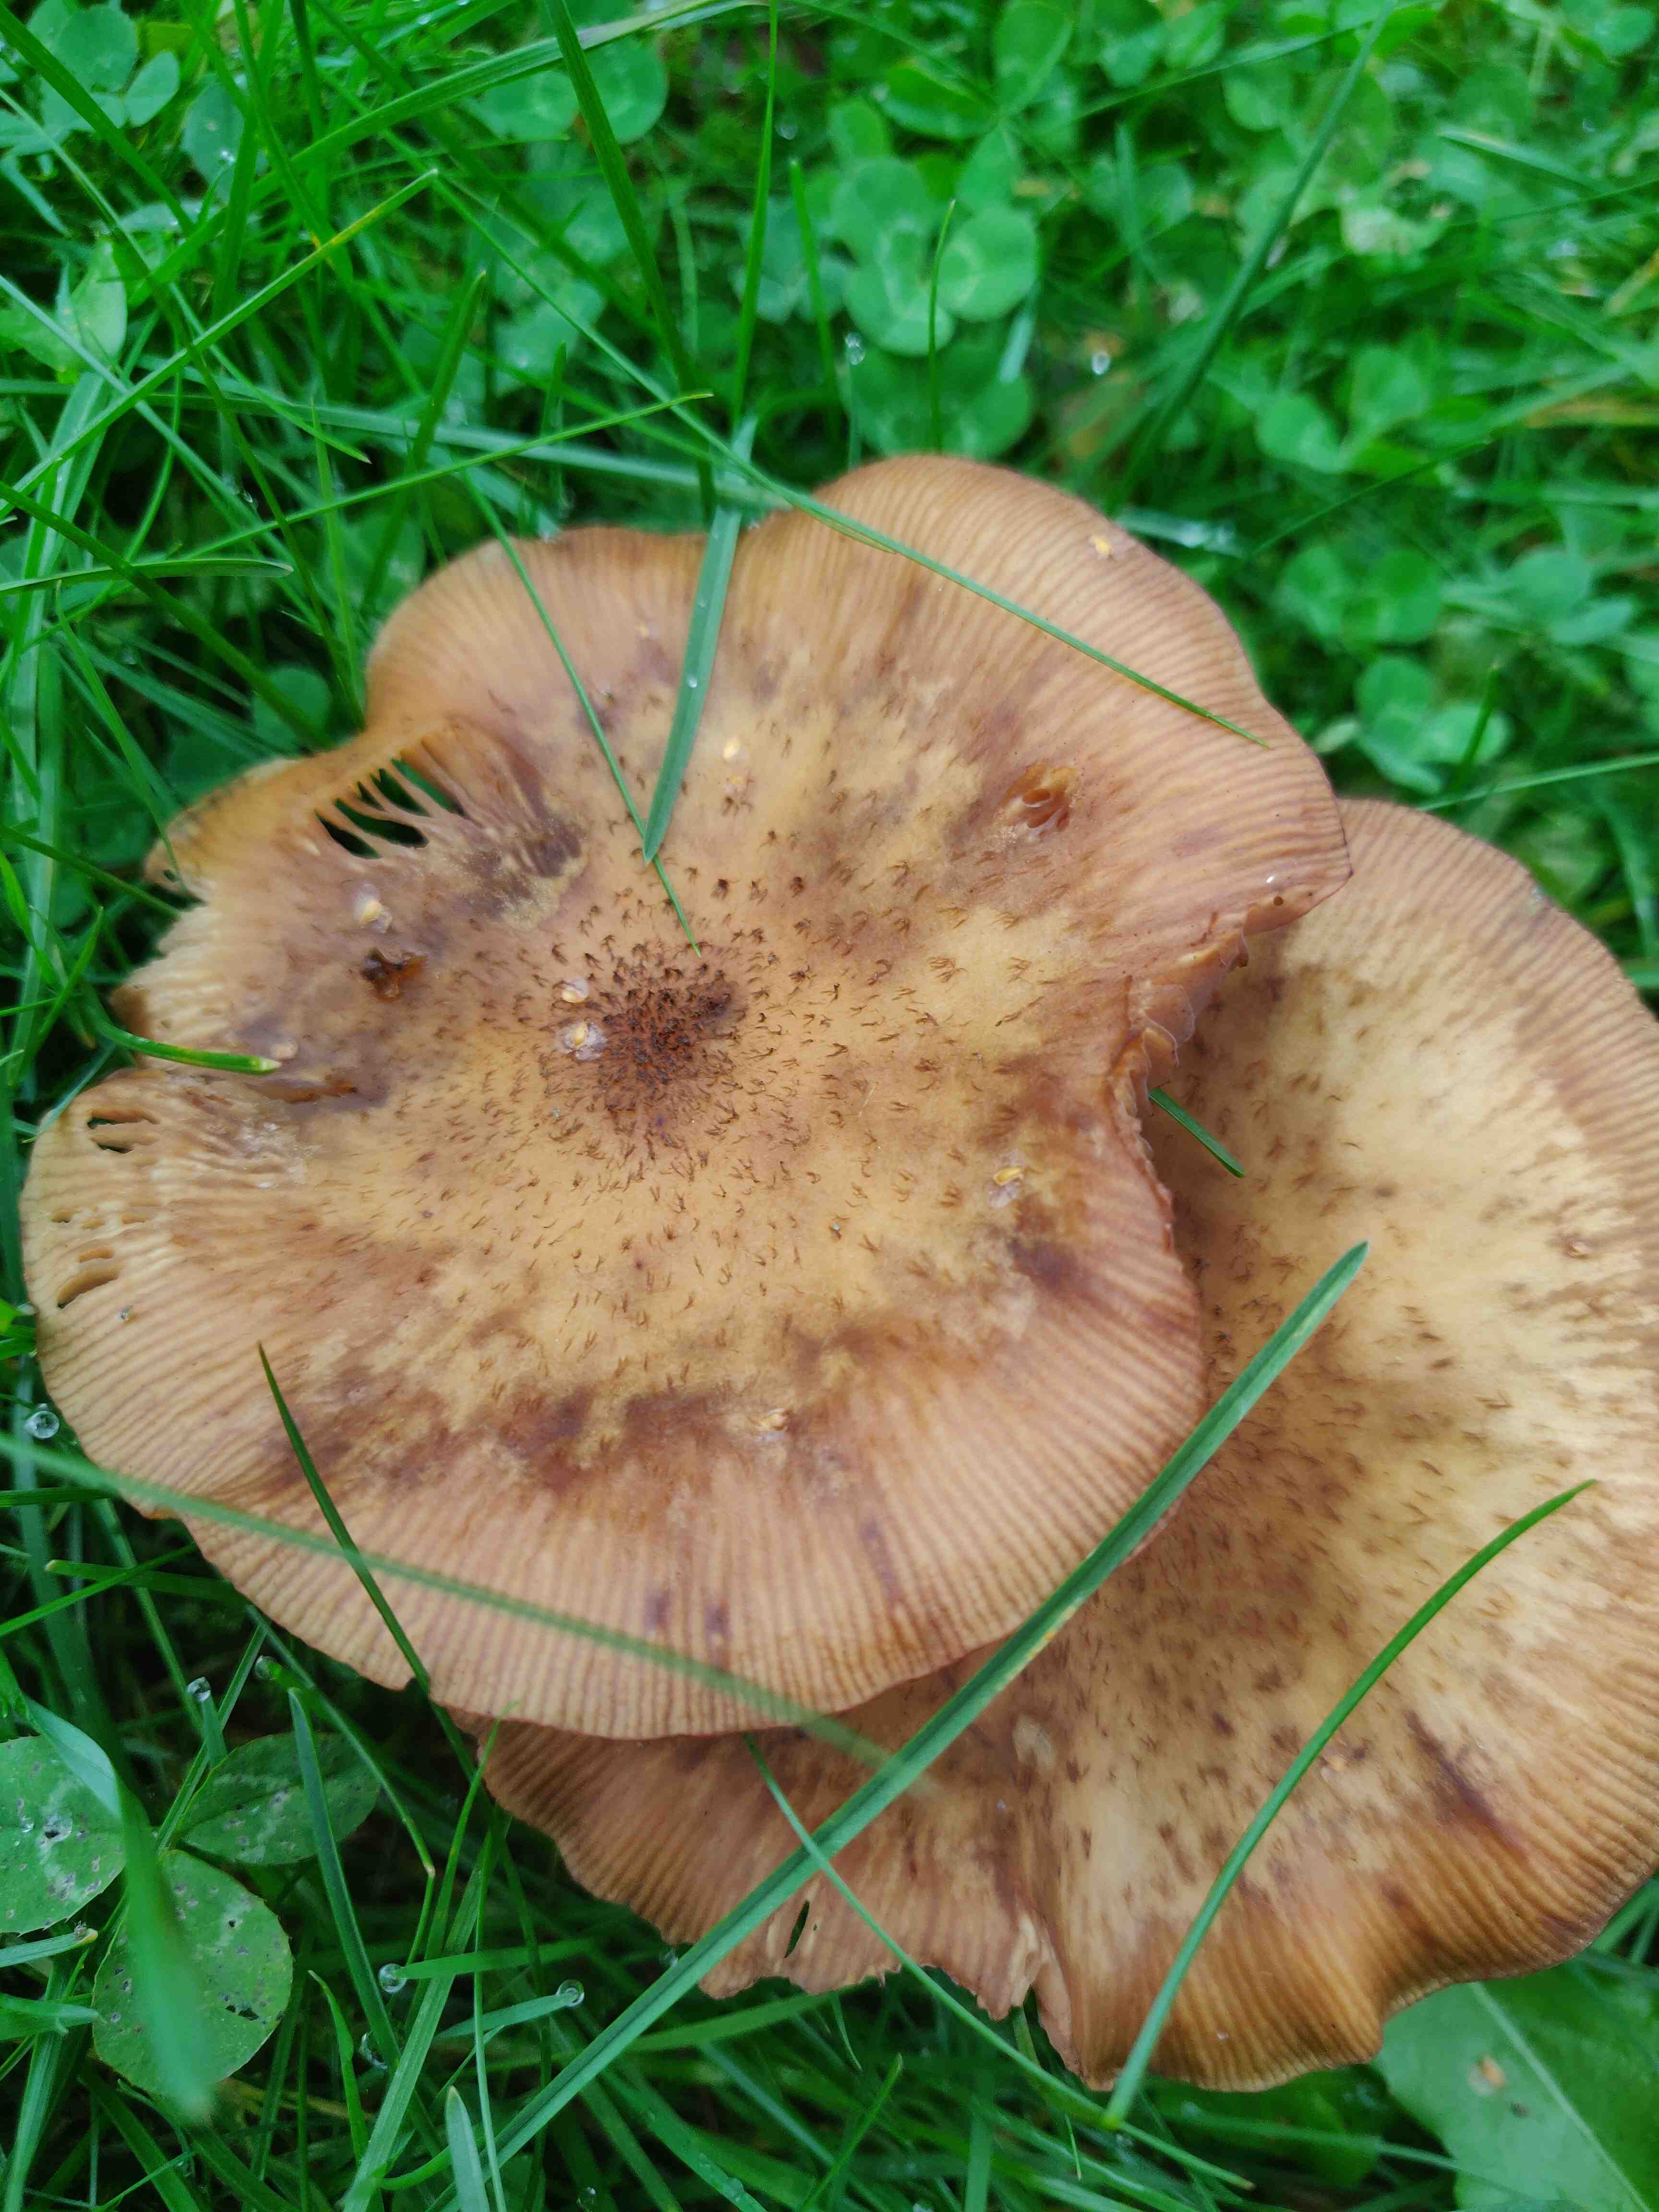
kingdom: Fungi
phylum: Basidiomycota
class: Agaricomycetes
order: Agaricales
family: Physalacriaceae
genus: Armillaria
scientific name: Armillaria
